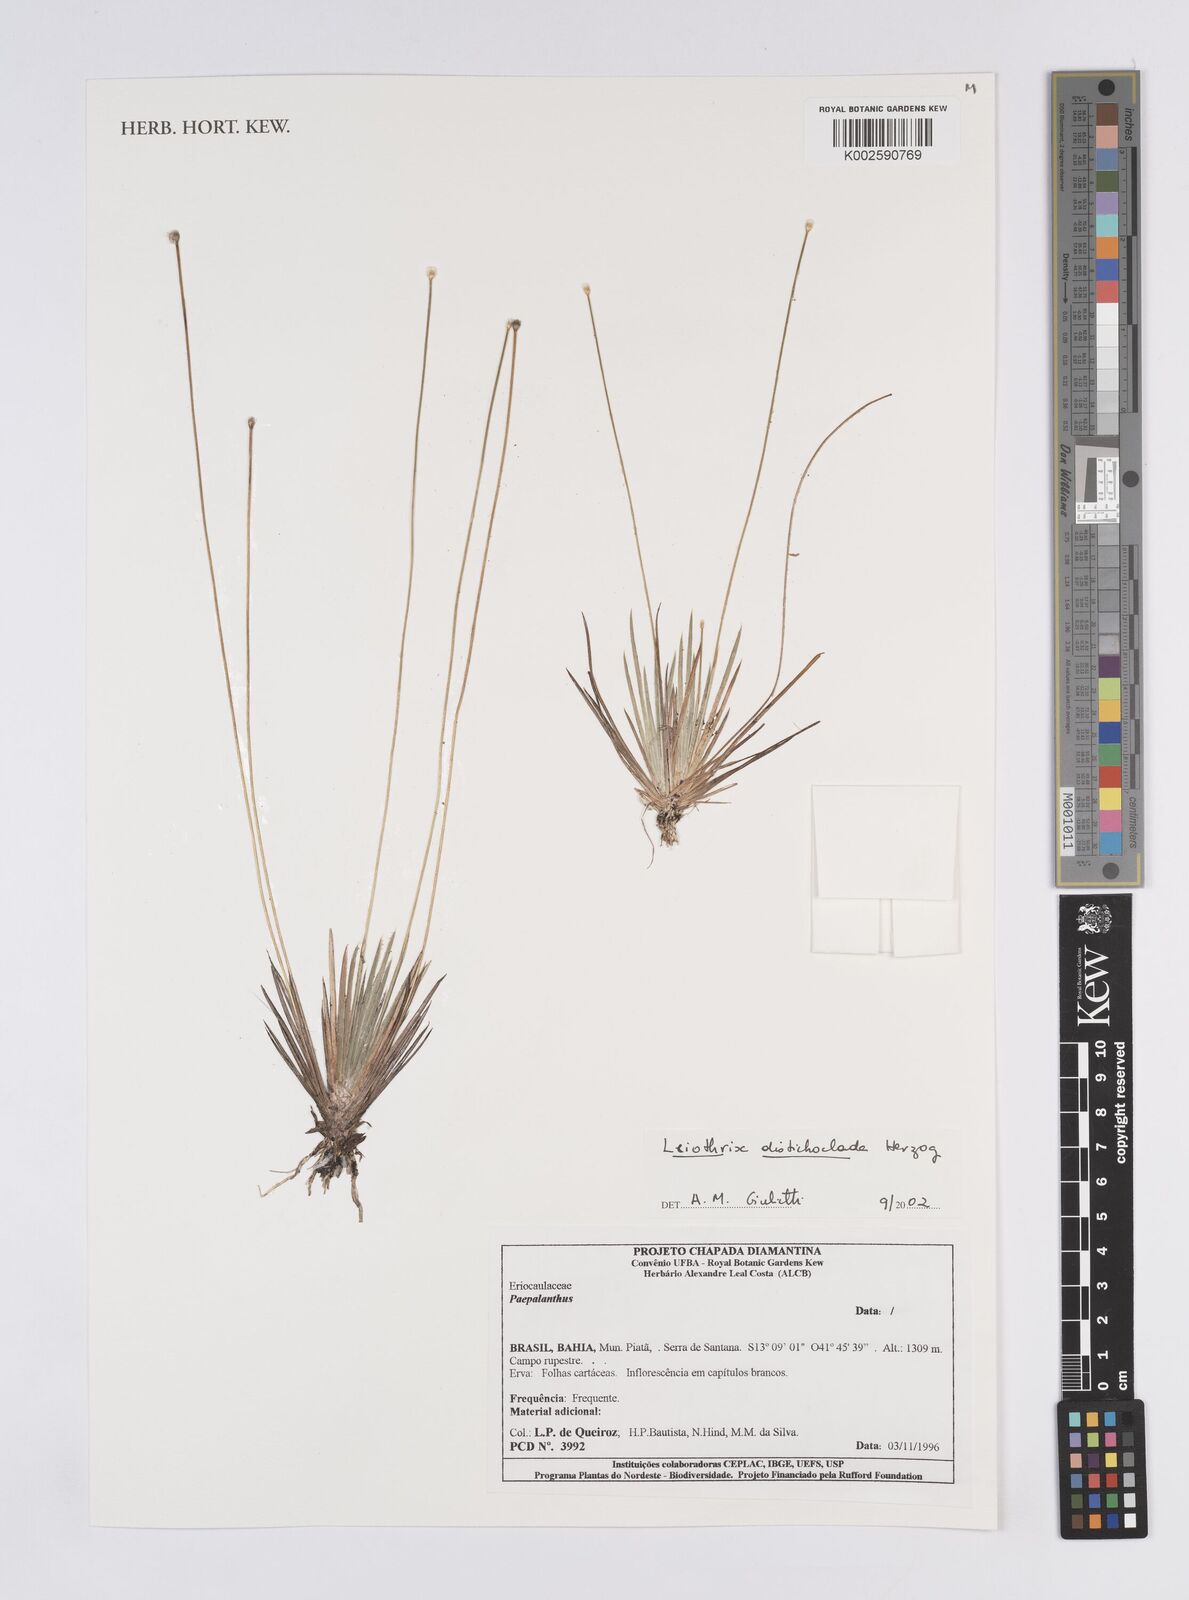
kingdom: Plantae
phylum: Tracheophyta
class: Liliopsida
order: Poales
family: Eriocaulaceae
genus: Leiothrix
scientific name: Leiothrix distichoclada
